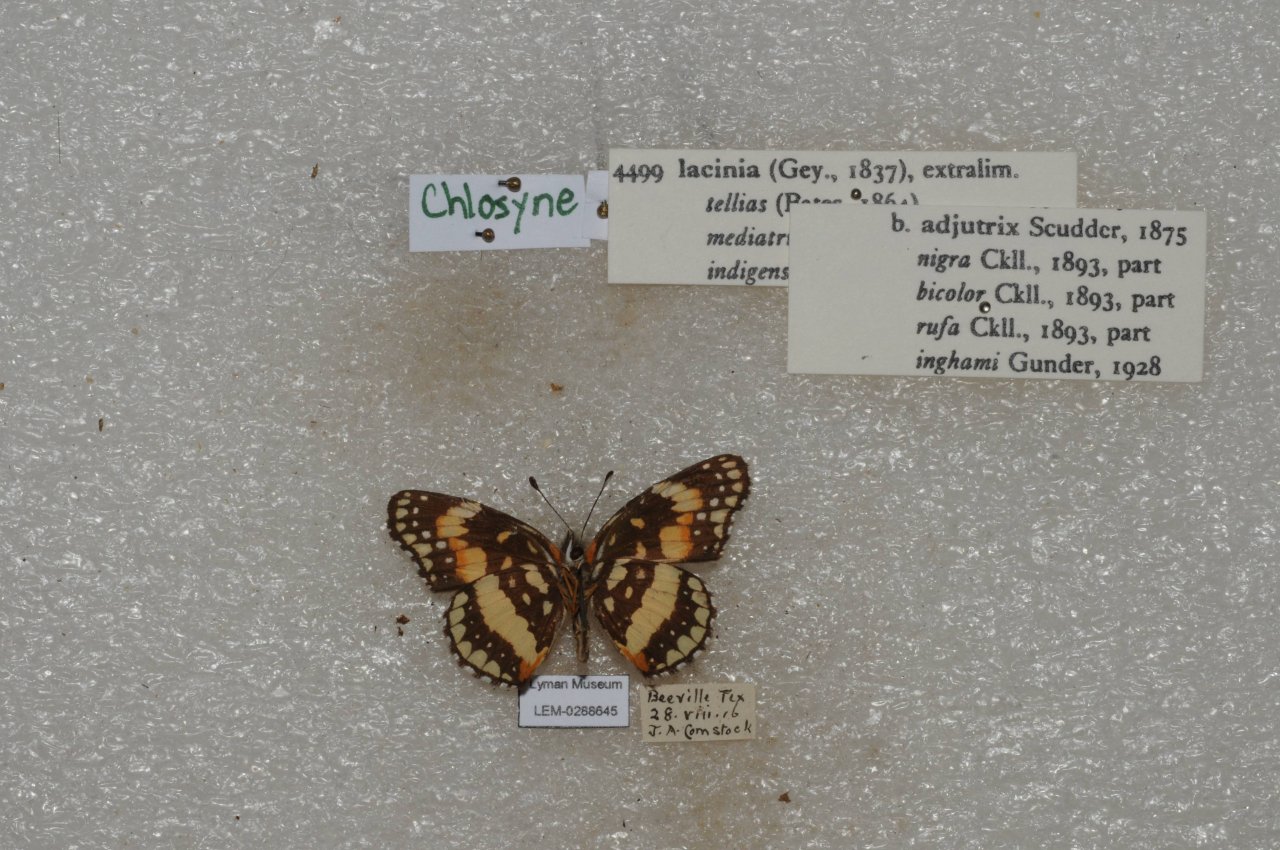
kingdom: Animalia
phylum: Arthropoda
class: Insecta
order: Lepidoptera
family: Nymphalidae
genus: Chlosyne
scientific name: Chlosyne lacinia
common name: Bordered Patch
